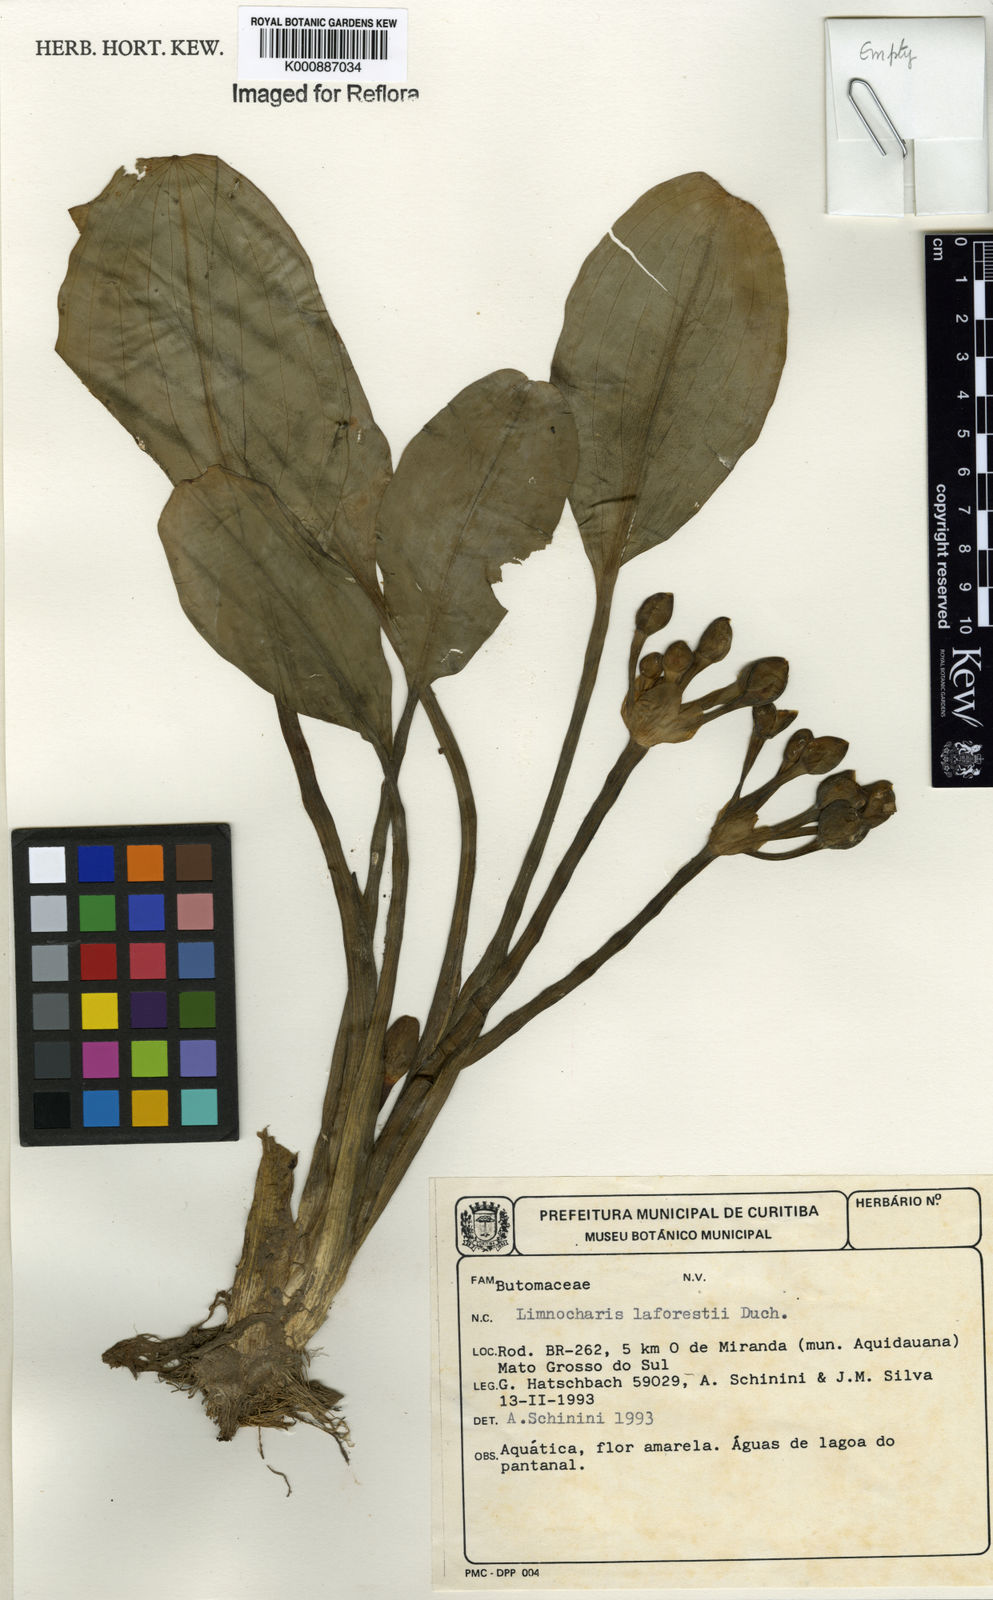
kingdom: Plantae
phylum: Tracheophyta
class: Liliopsida
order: Alismatales
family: Alismataceae
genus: Limnocharis
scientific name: Limnocharis laforestii
